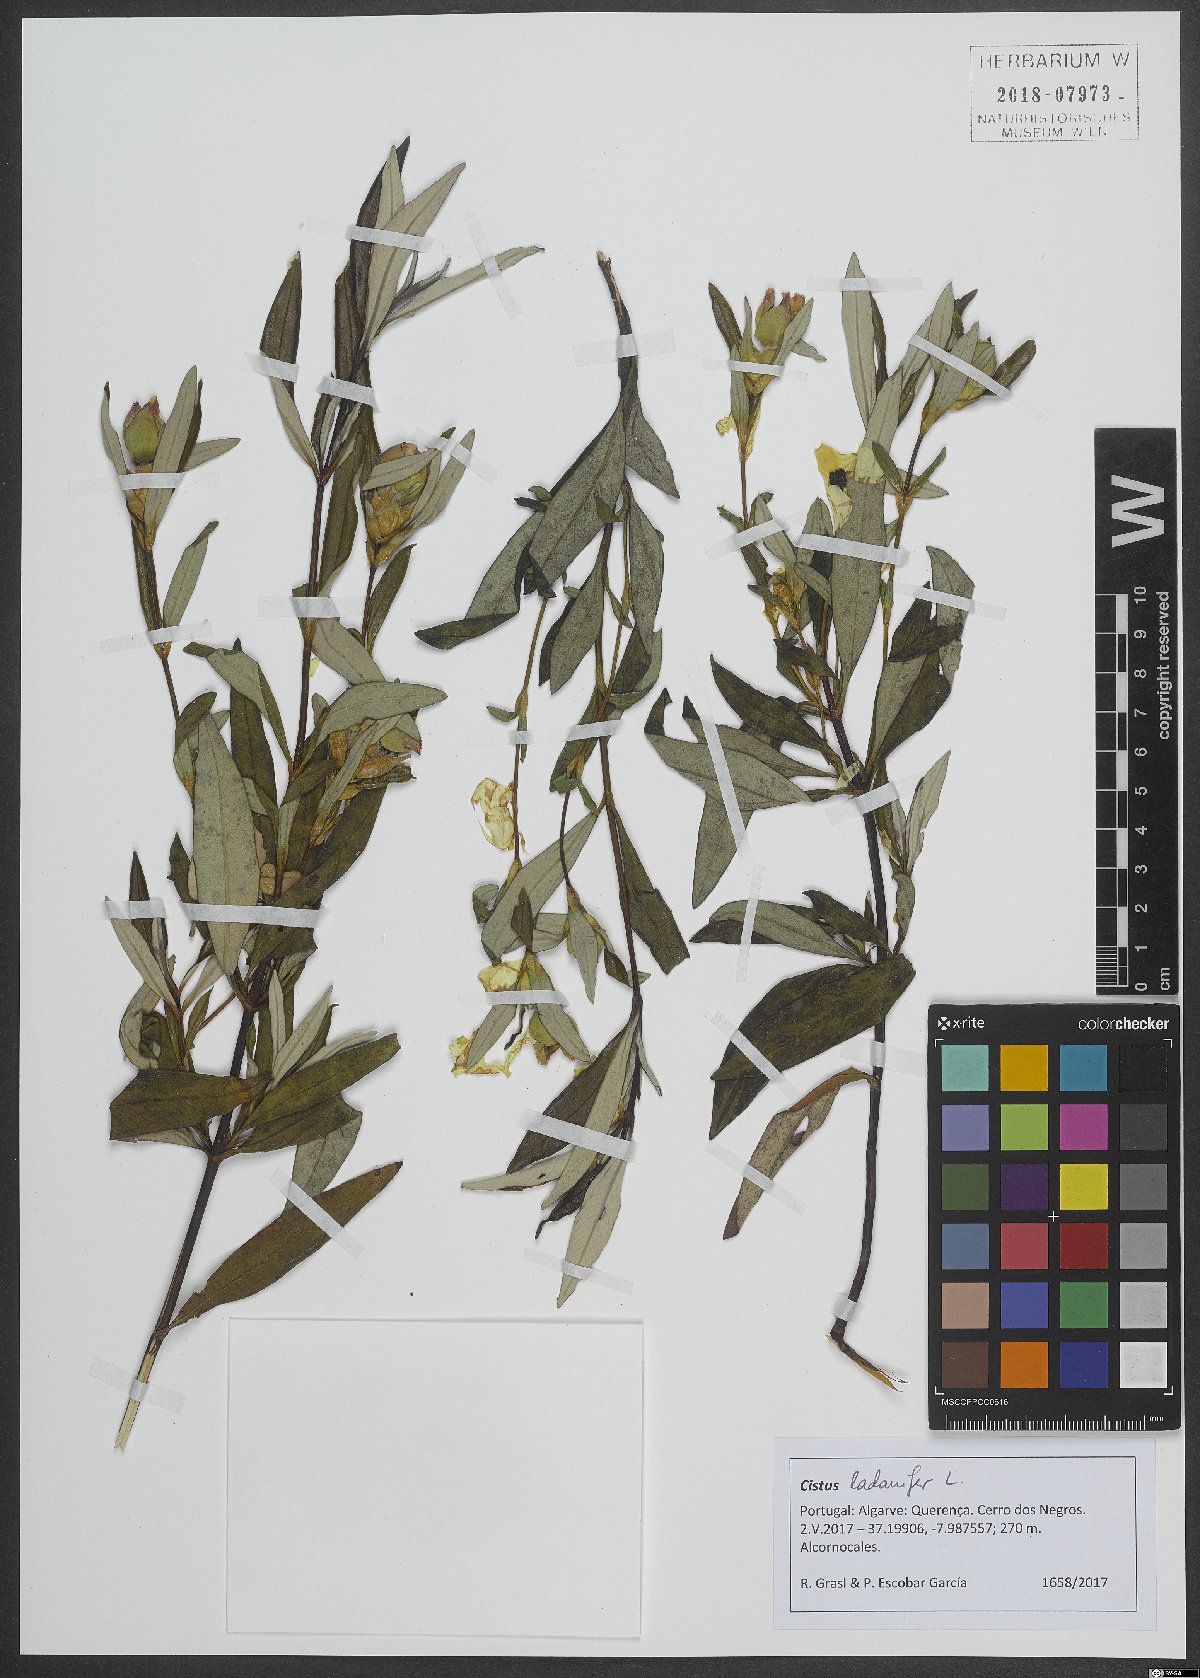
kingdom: Plantae
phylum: Tracheophyta
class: Magnoliopsida
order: Malvales
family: Cistaceae
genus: Cistus
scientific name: Cistus ladanifer
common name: Common gum cistus
